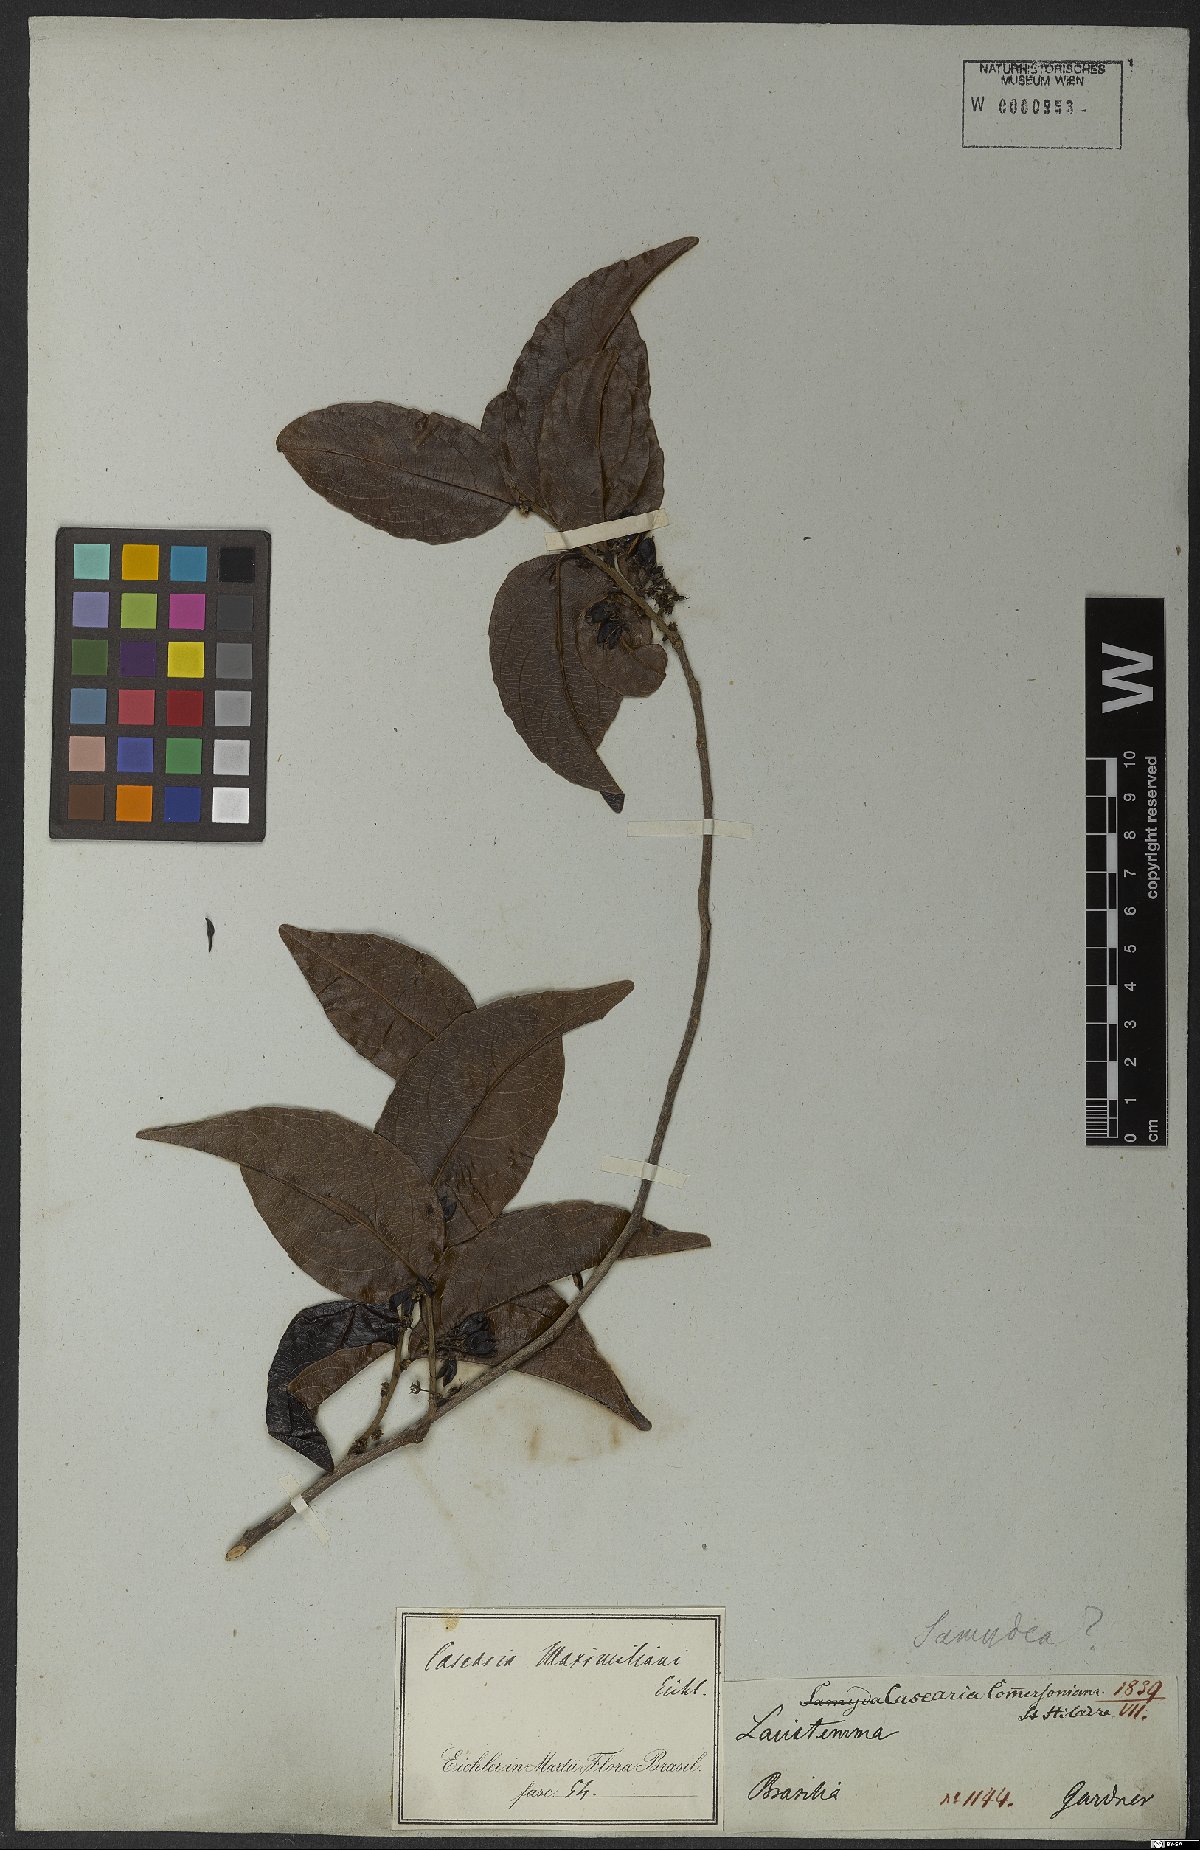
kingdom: Plantae
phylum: Tracheophyta
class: Magnoliopsida
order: Malpighiales
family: Salicaceae
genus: Piparea
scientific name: Piparea dentata
